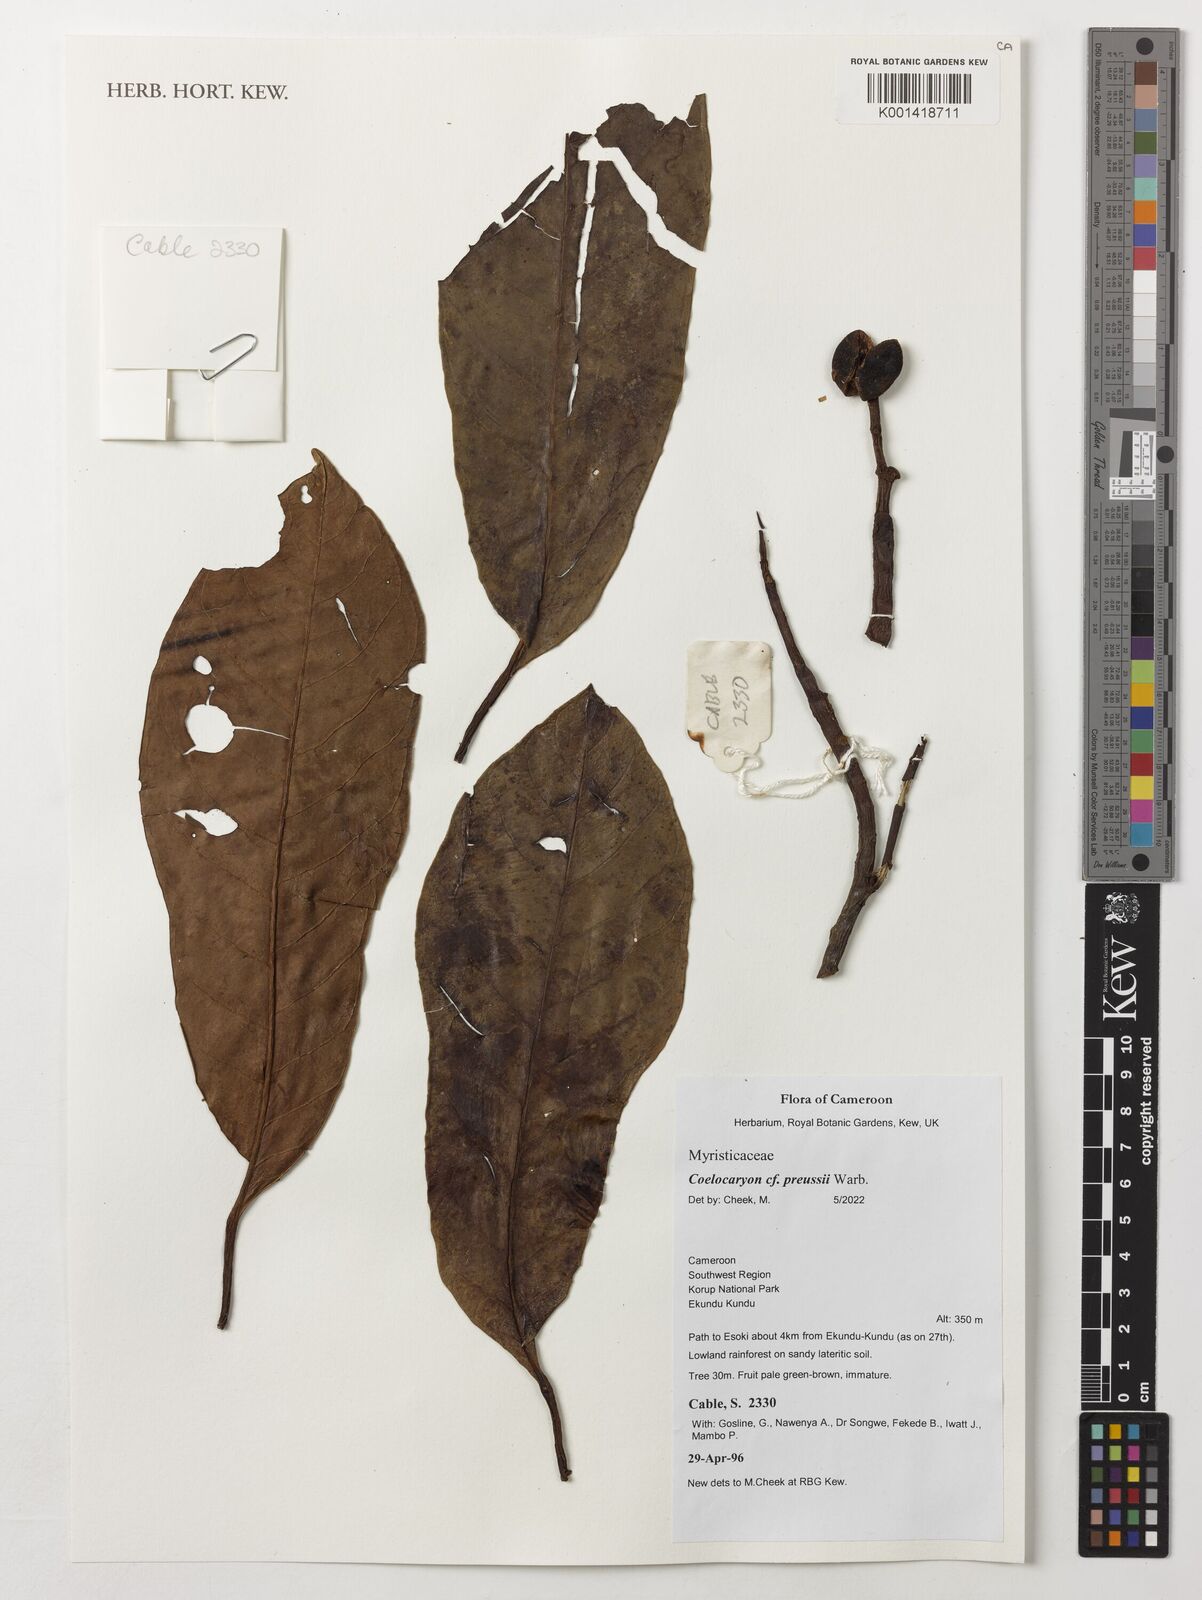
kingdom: Plantae
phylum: Tracheophyta
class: Magnoliopsida
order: Magnoliales
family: Myristicaceae
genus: Coelocaryon
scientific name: Coelocaryon preussii
